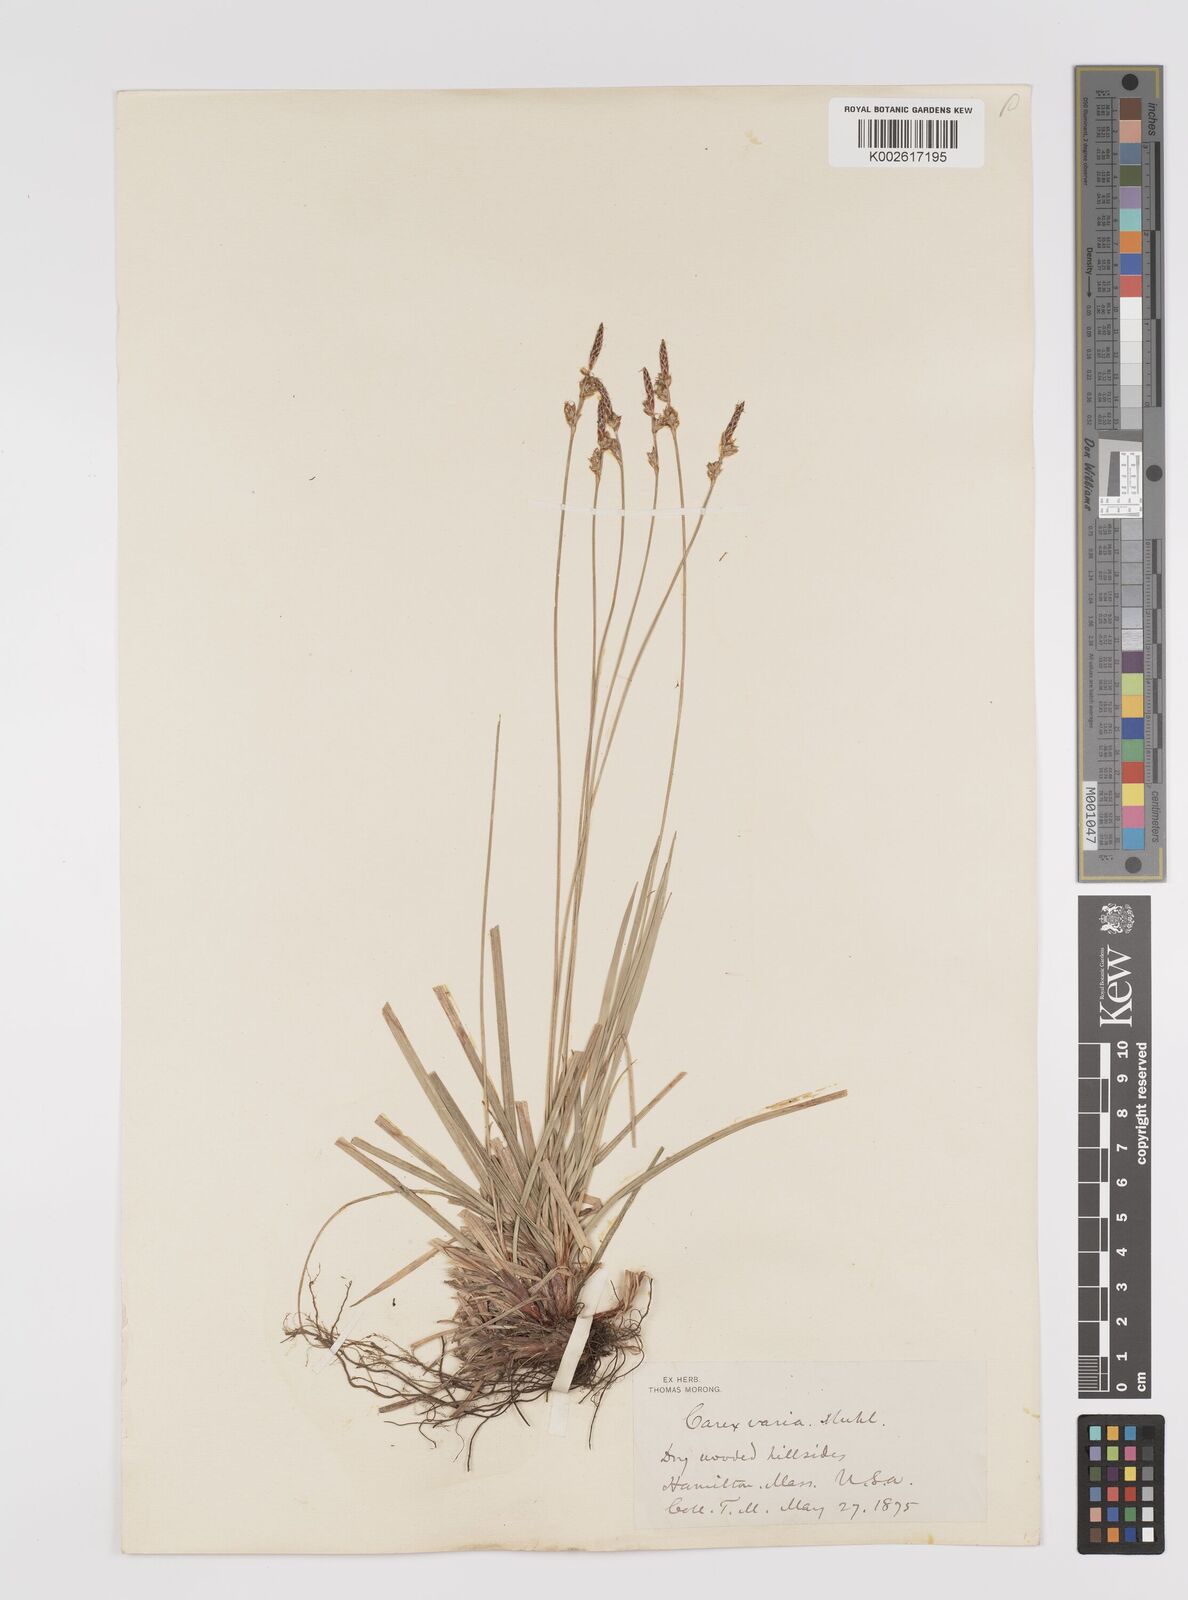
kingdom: Plantae
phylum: Tracheophyta
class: Liliopsida
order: Poales
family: Cyperaceae
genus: Carex
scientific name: Carex albicans
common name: Bellow-beaked sedge
